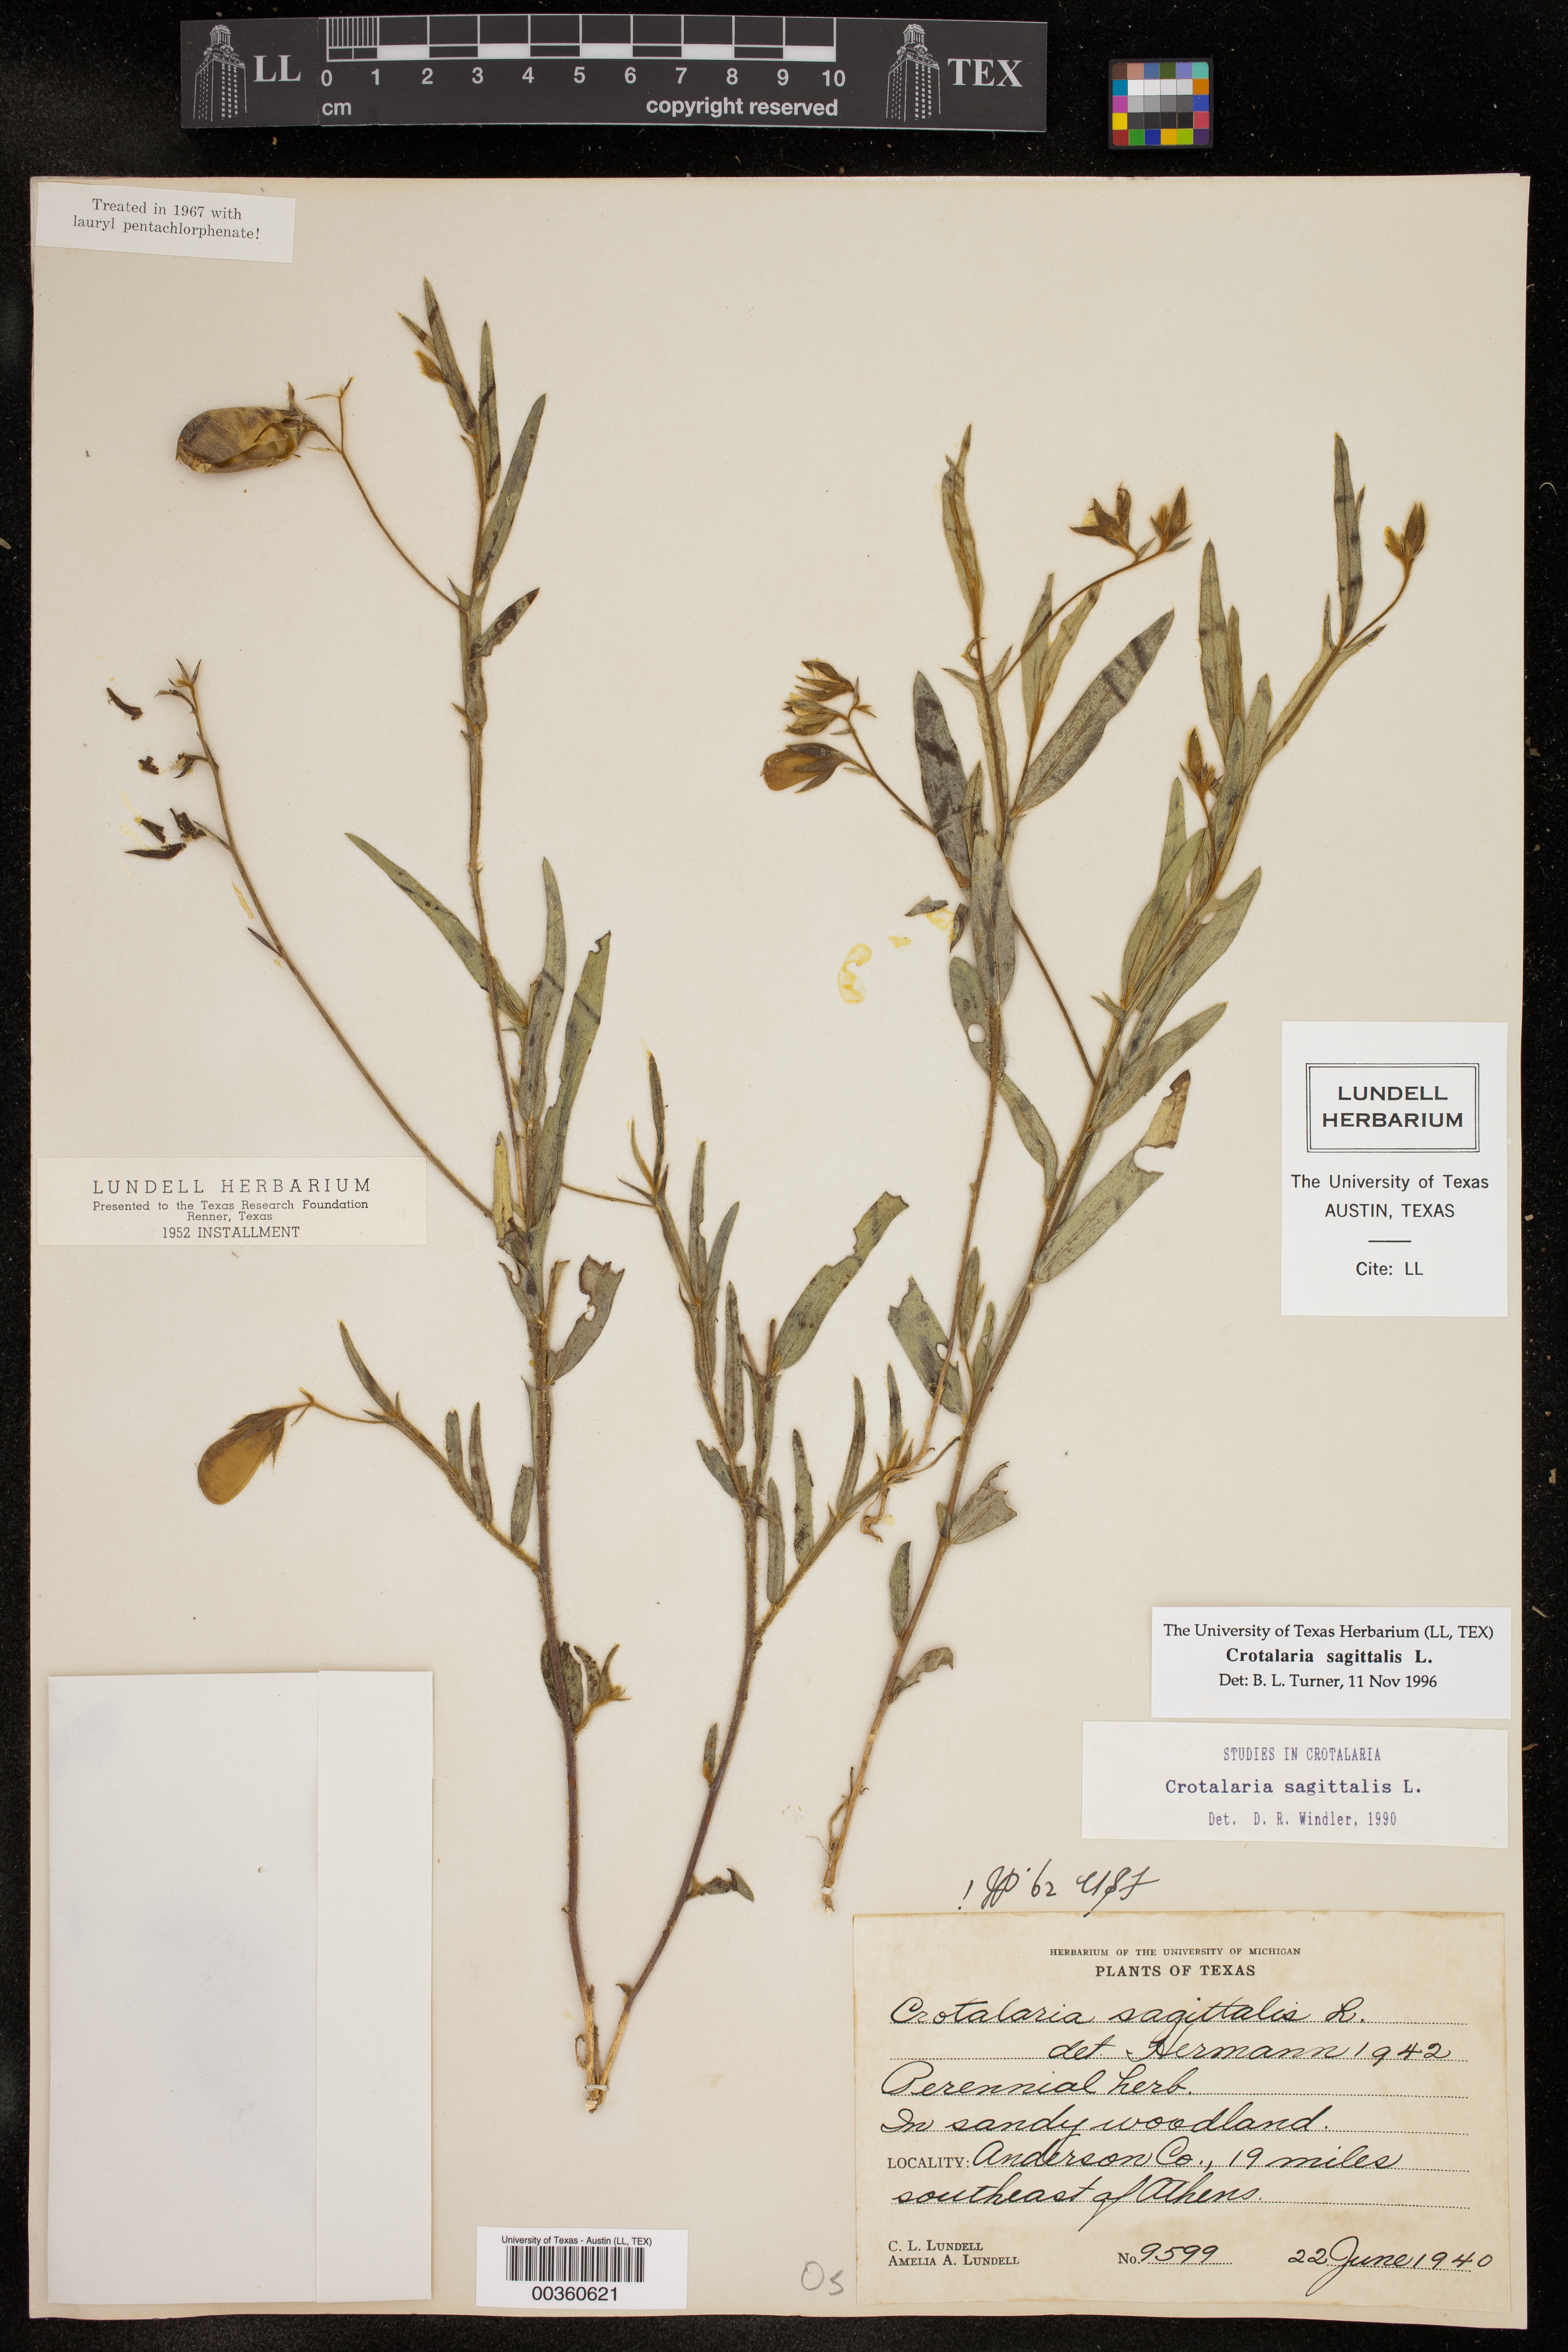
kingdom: Plantae
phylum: Tracheophyta
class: Magnoliopsida
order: Fabales
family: Fabaceae
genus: Crotalaria
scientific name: Crotalaria sagittalis
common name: Arrowhead rattlebox
